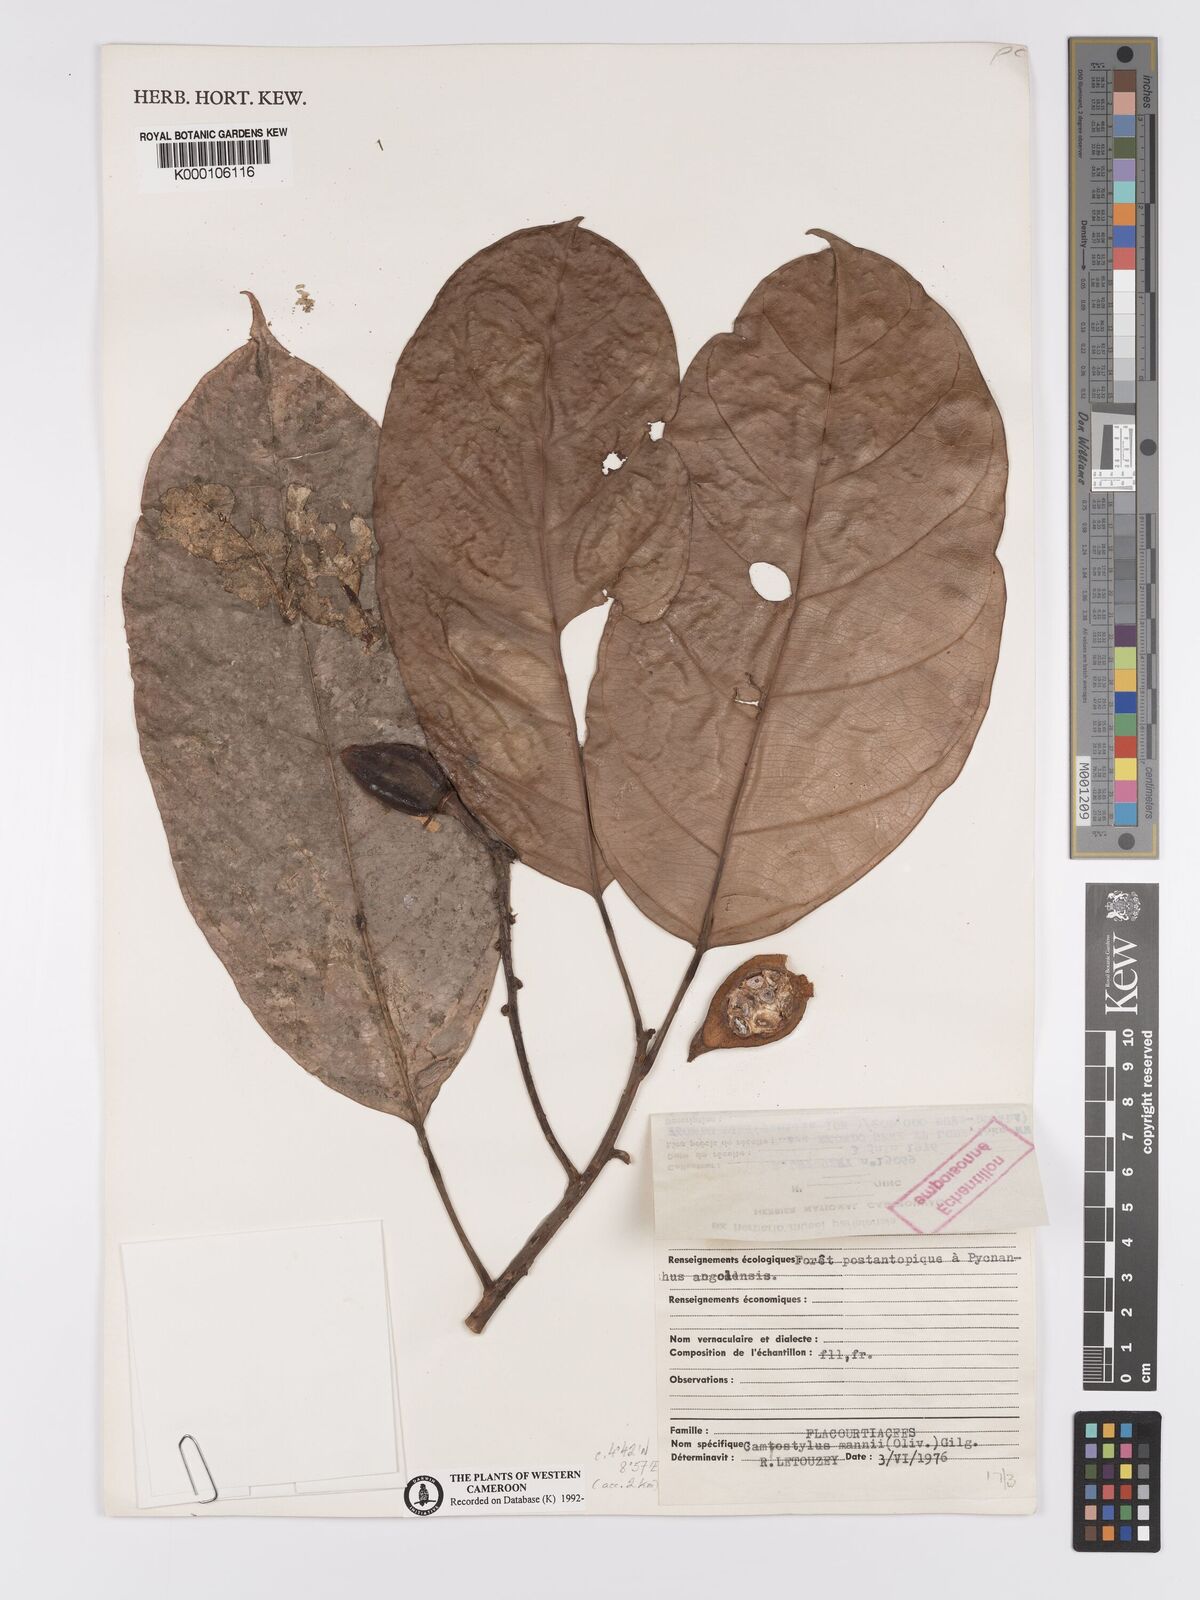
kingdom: Plantae
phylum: Tracheophyta
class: Magnoliopsida
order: Malpighiales
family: Achariaceae
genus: Camptostylus
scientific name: Camptostylus mannii
